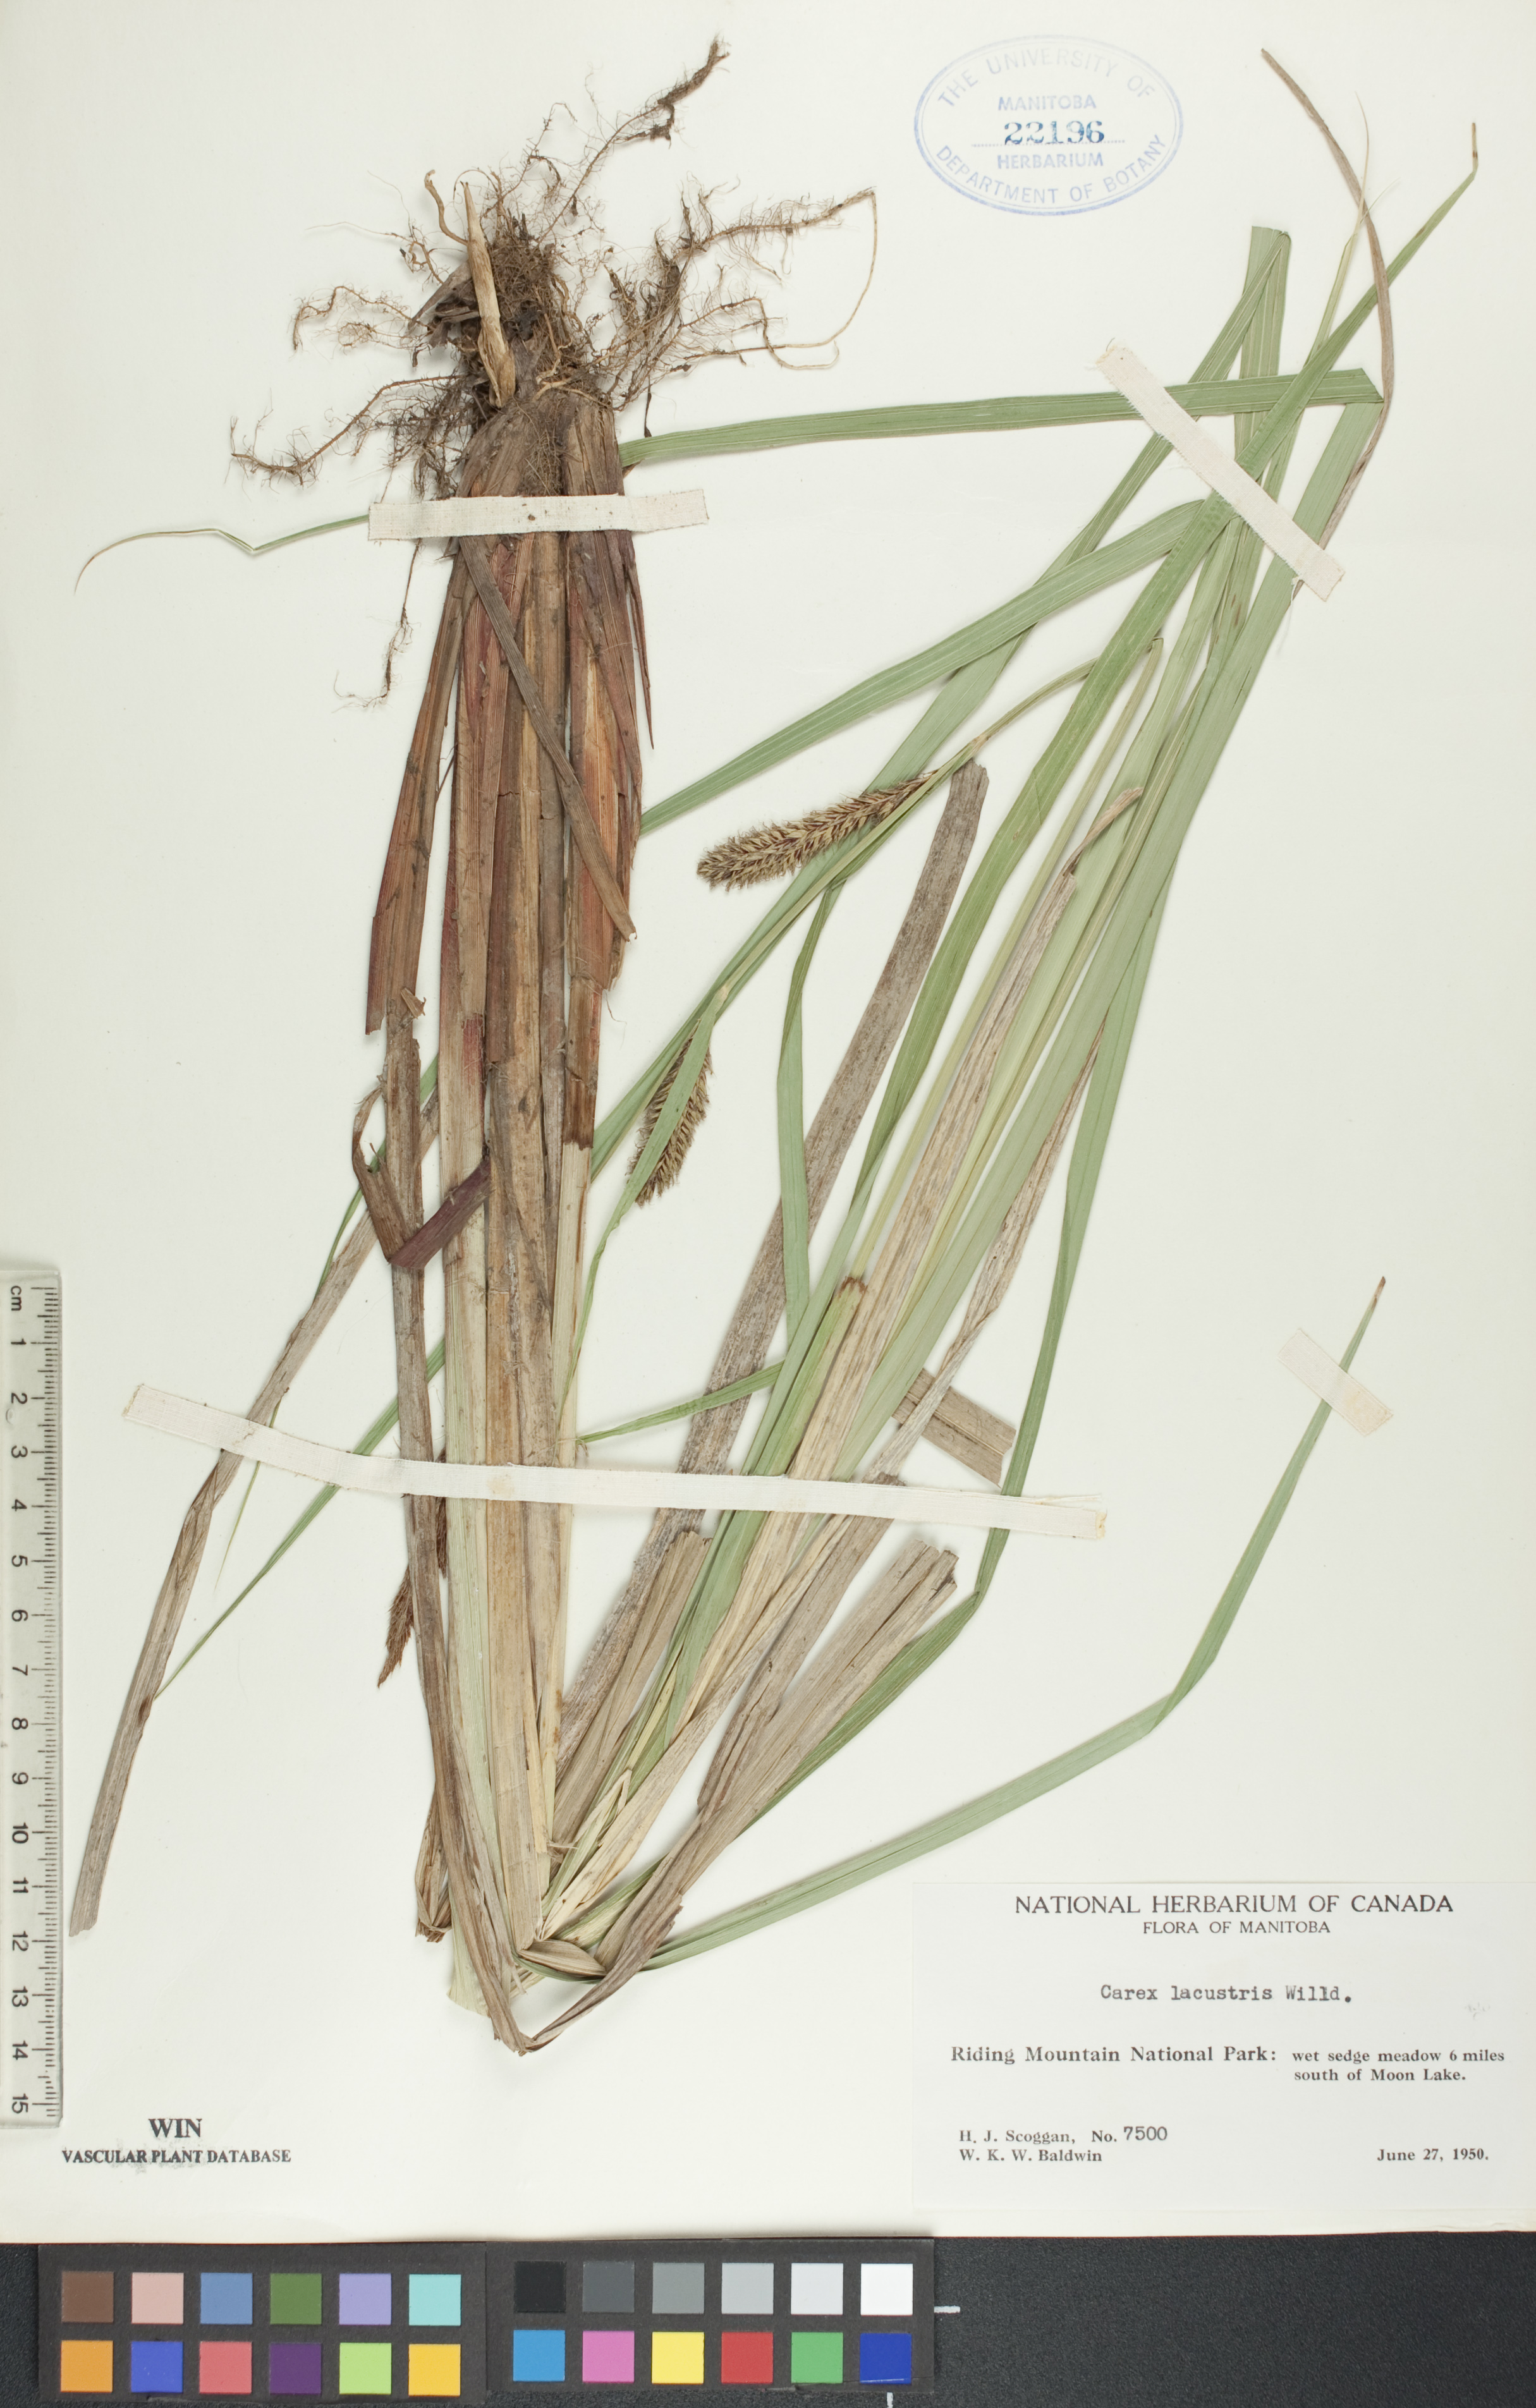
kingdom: Plantae
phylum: Tracheophyta
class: Liliopsida
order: Poales
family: Cyperaceae
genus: Carex
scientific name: Carex lacustris
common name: Common lake sedge
